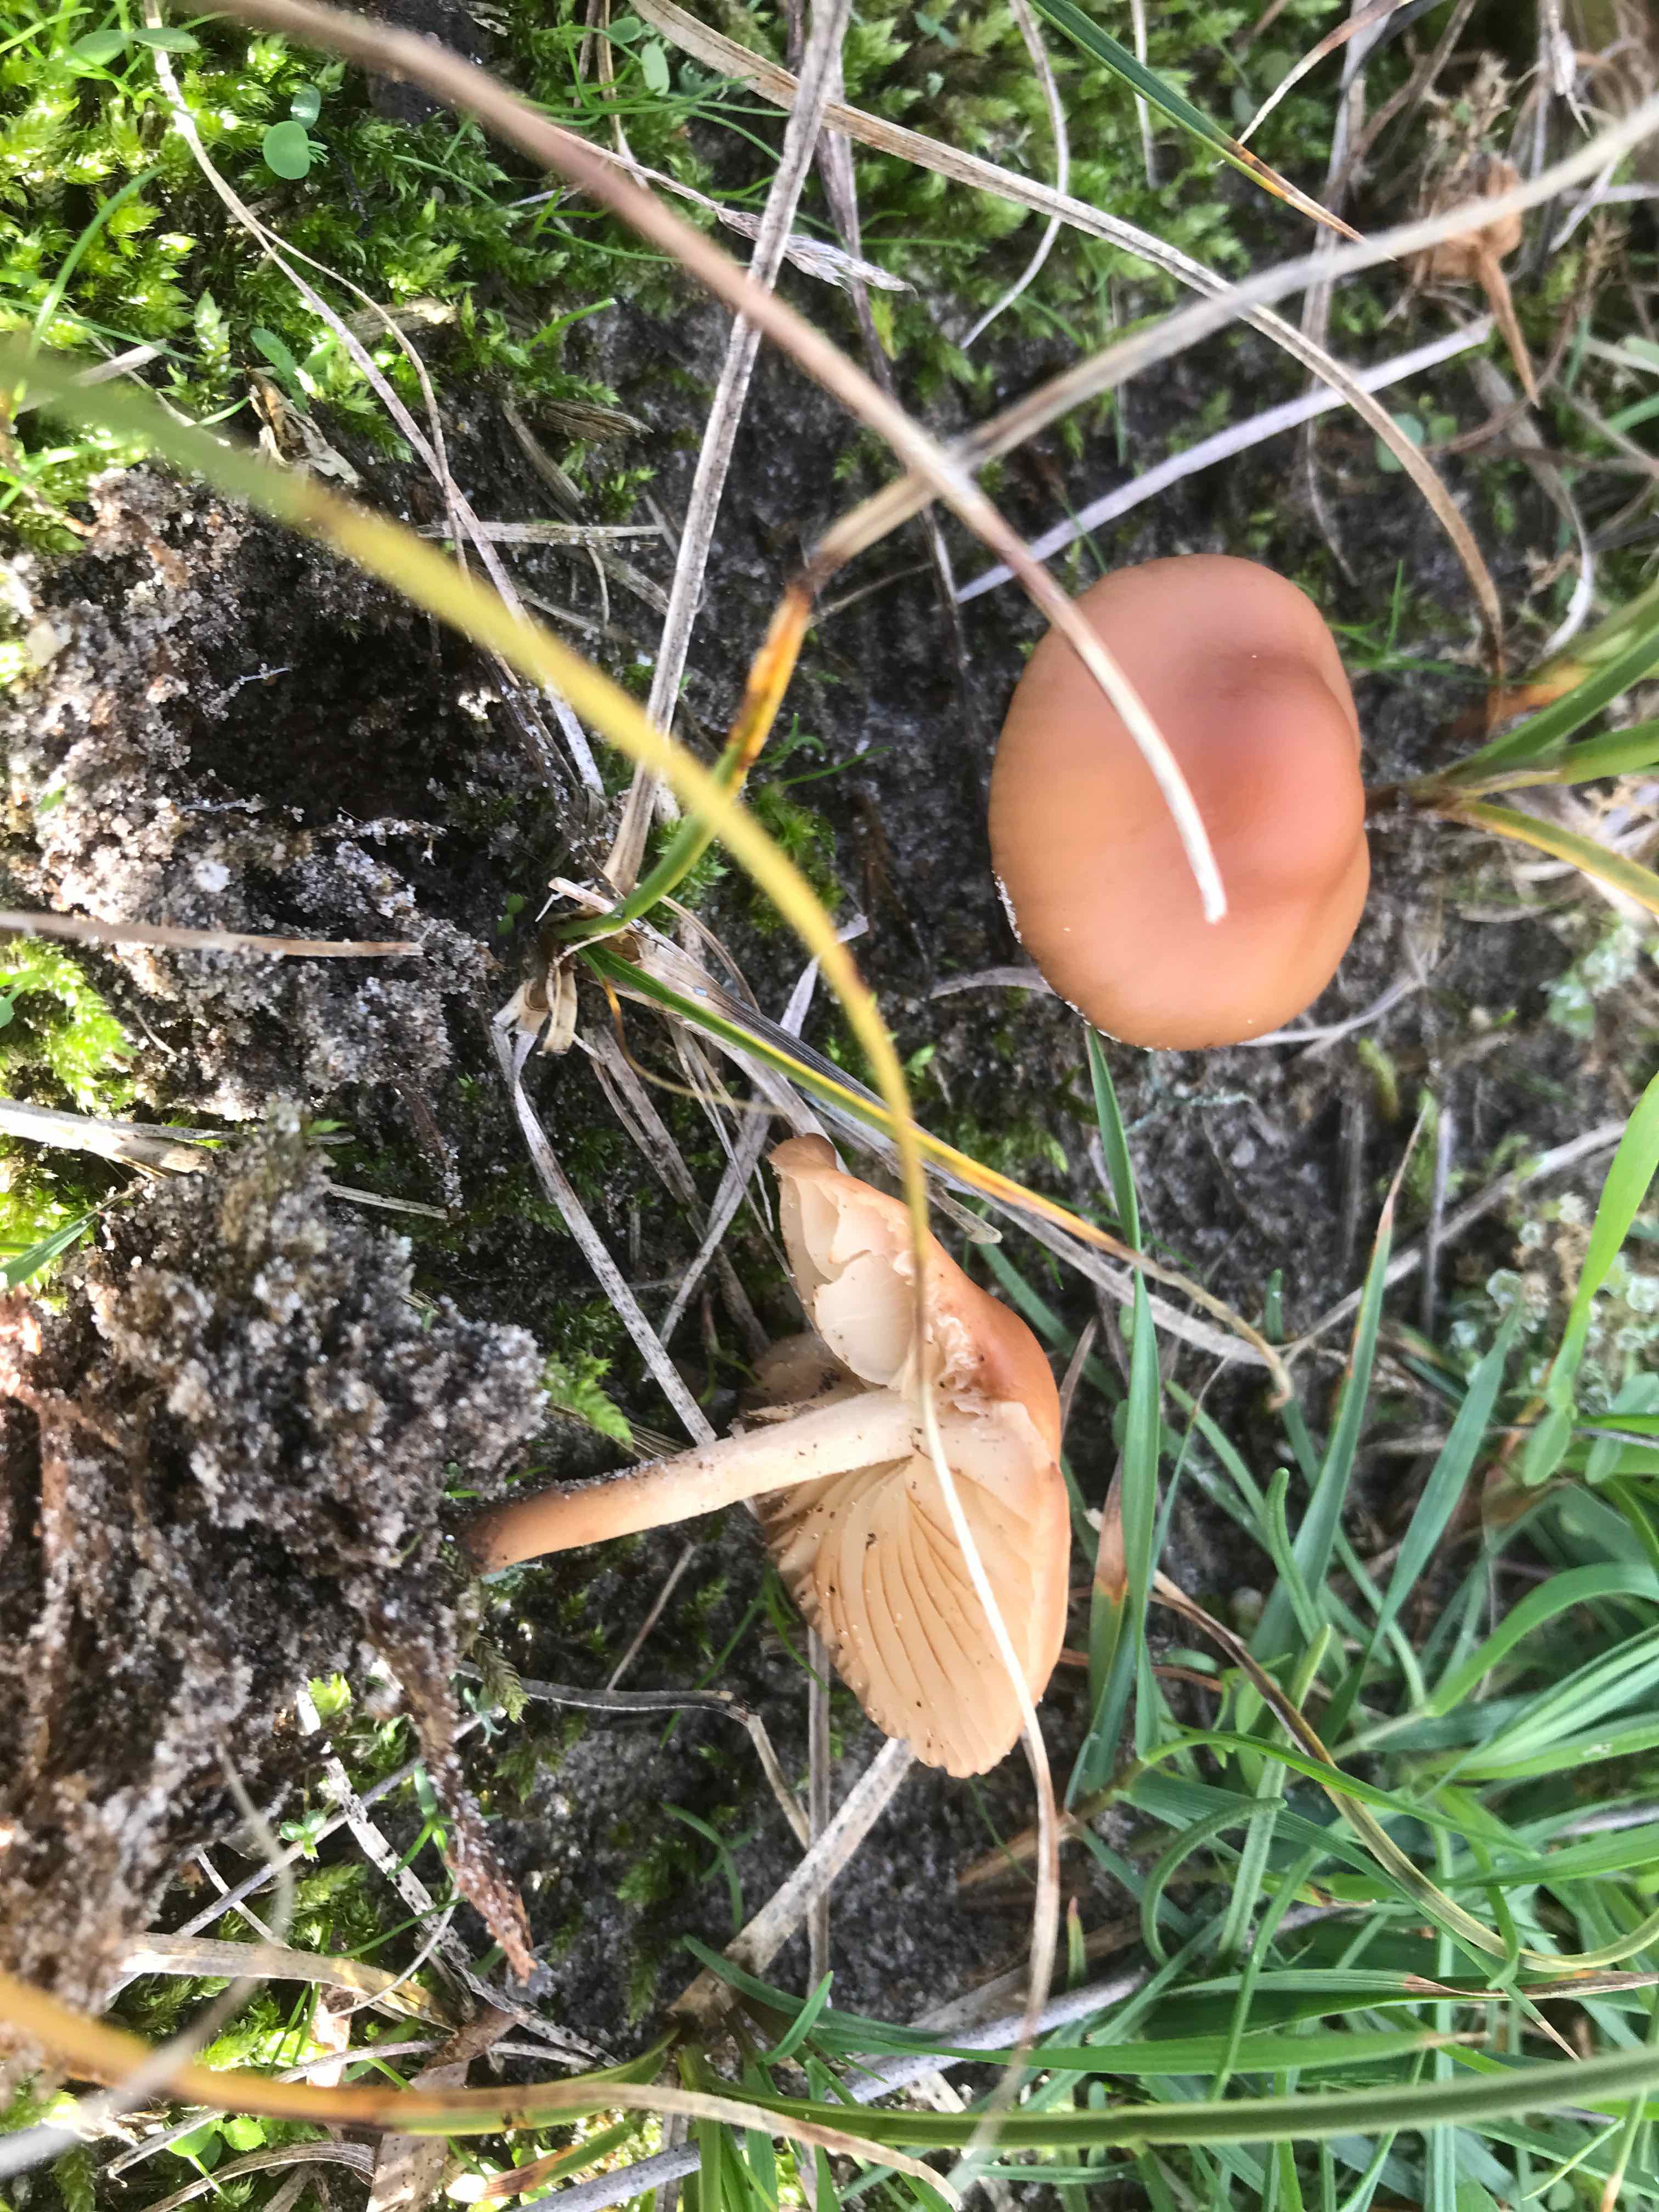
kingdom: Fungi
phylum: Basidiomycota
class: Agaricomycetes
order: Agaricales
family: Marasmiaceae
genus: Marasmius
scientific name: Marasmius oreades
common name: elledans-bruskhat
